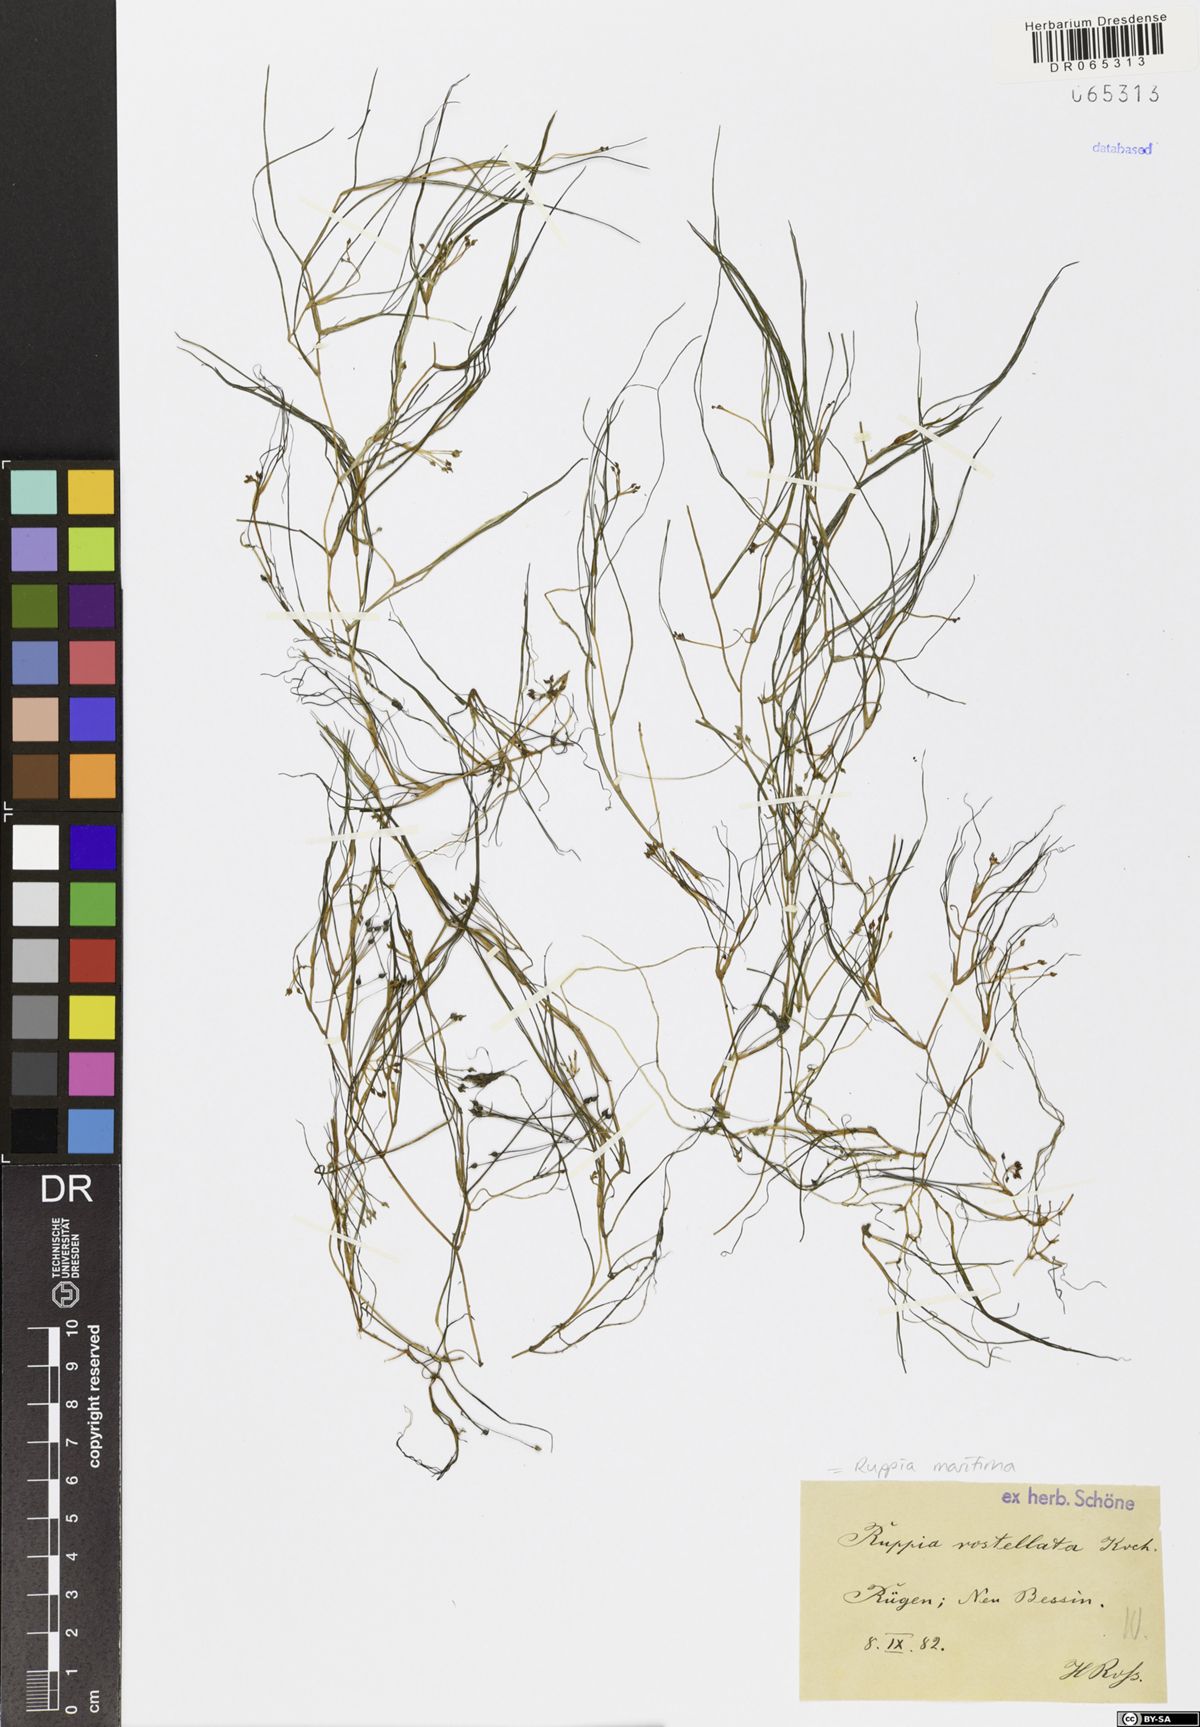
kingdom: Plantae
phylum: Tracheophyta
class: Liliopsida
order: Alismatales
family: Ruppiaceae
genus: Ruppia
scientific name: Ruppia maritima
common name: Beaked tasselweed
